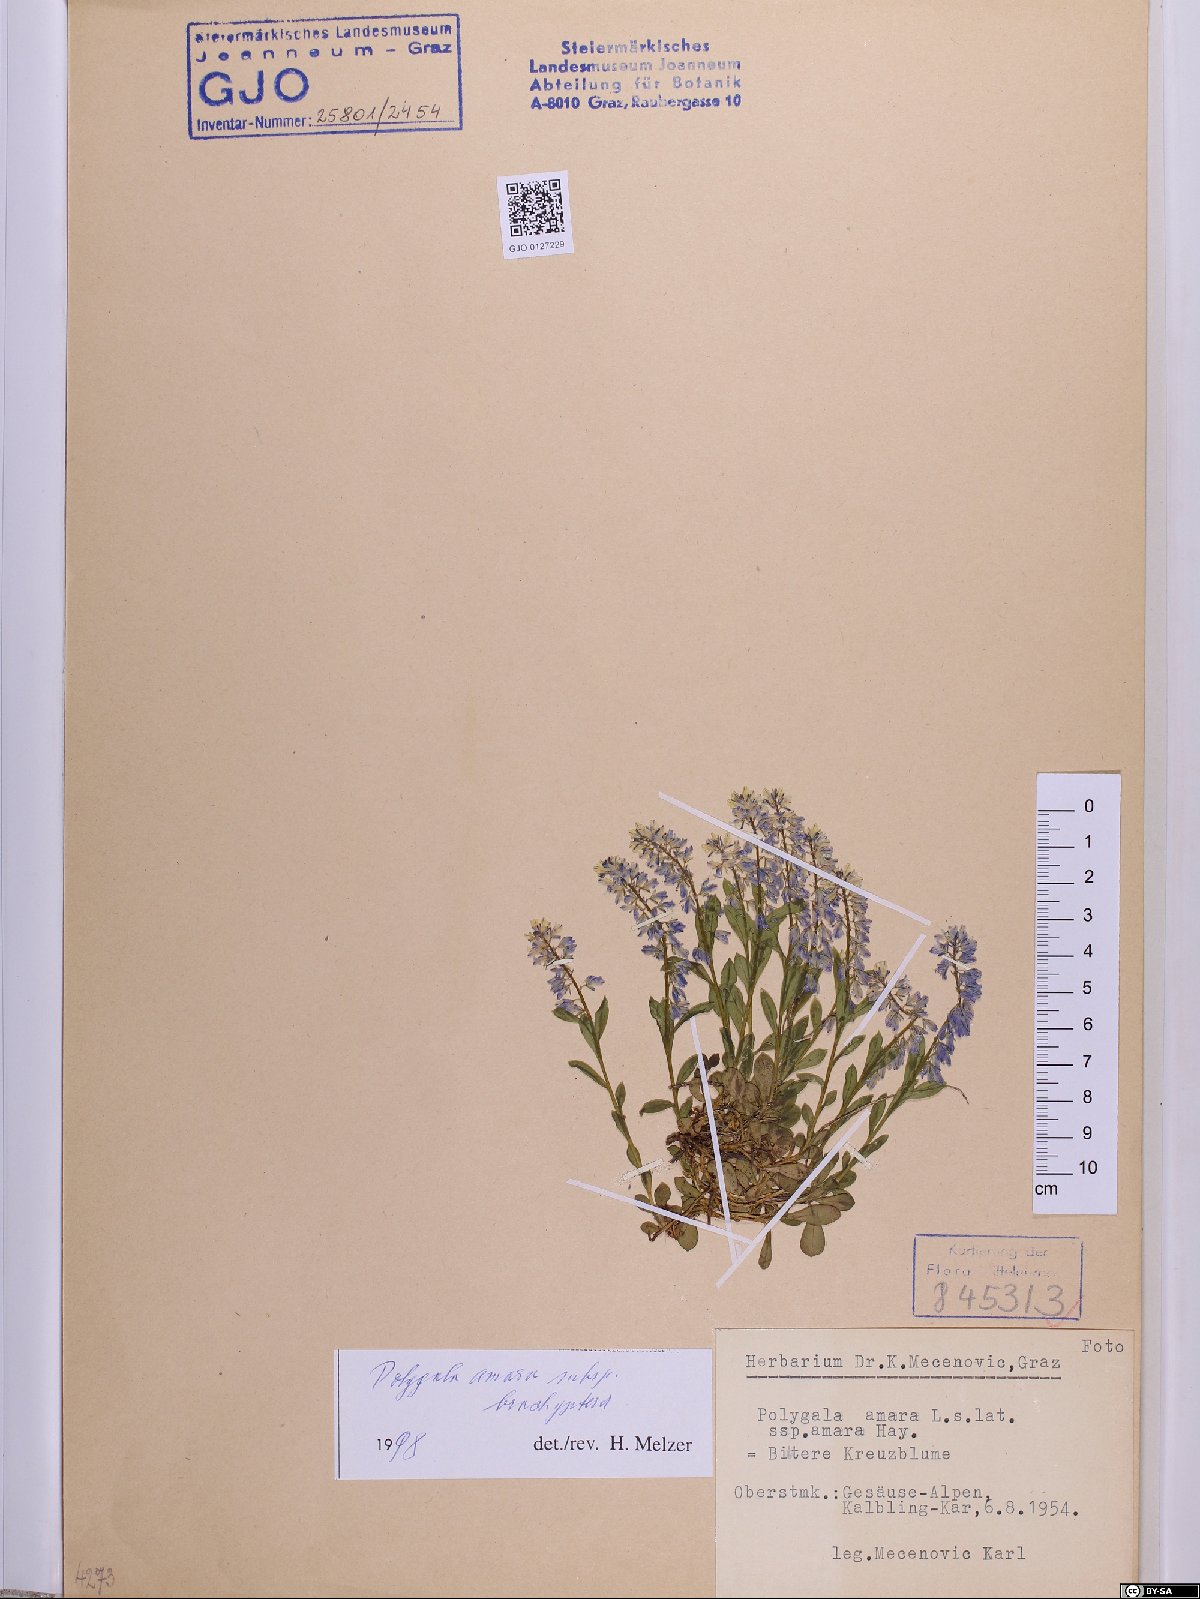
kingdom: Plantae
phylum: Tracheophyta
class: Magnoliopsida
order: Fabales
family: Polygalaceae
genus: Polygala
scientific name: Polygala amara
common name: Milkwort
